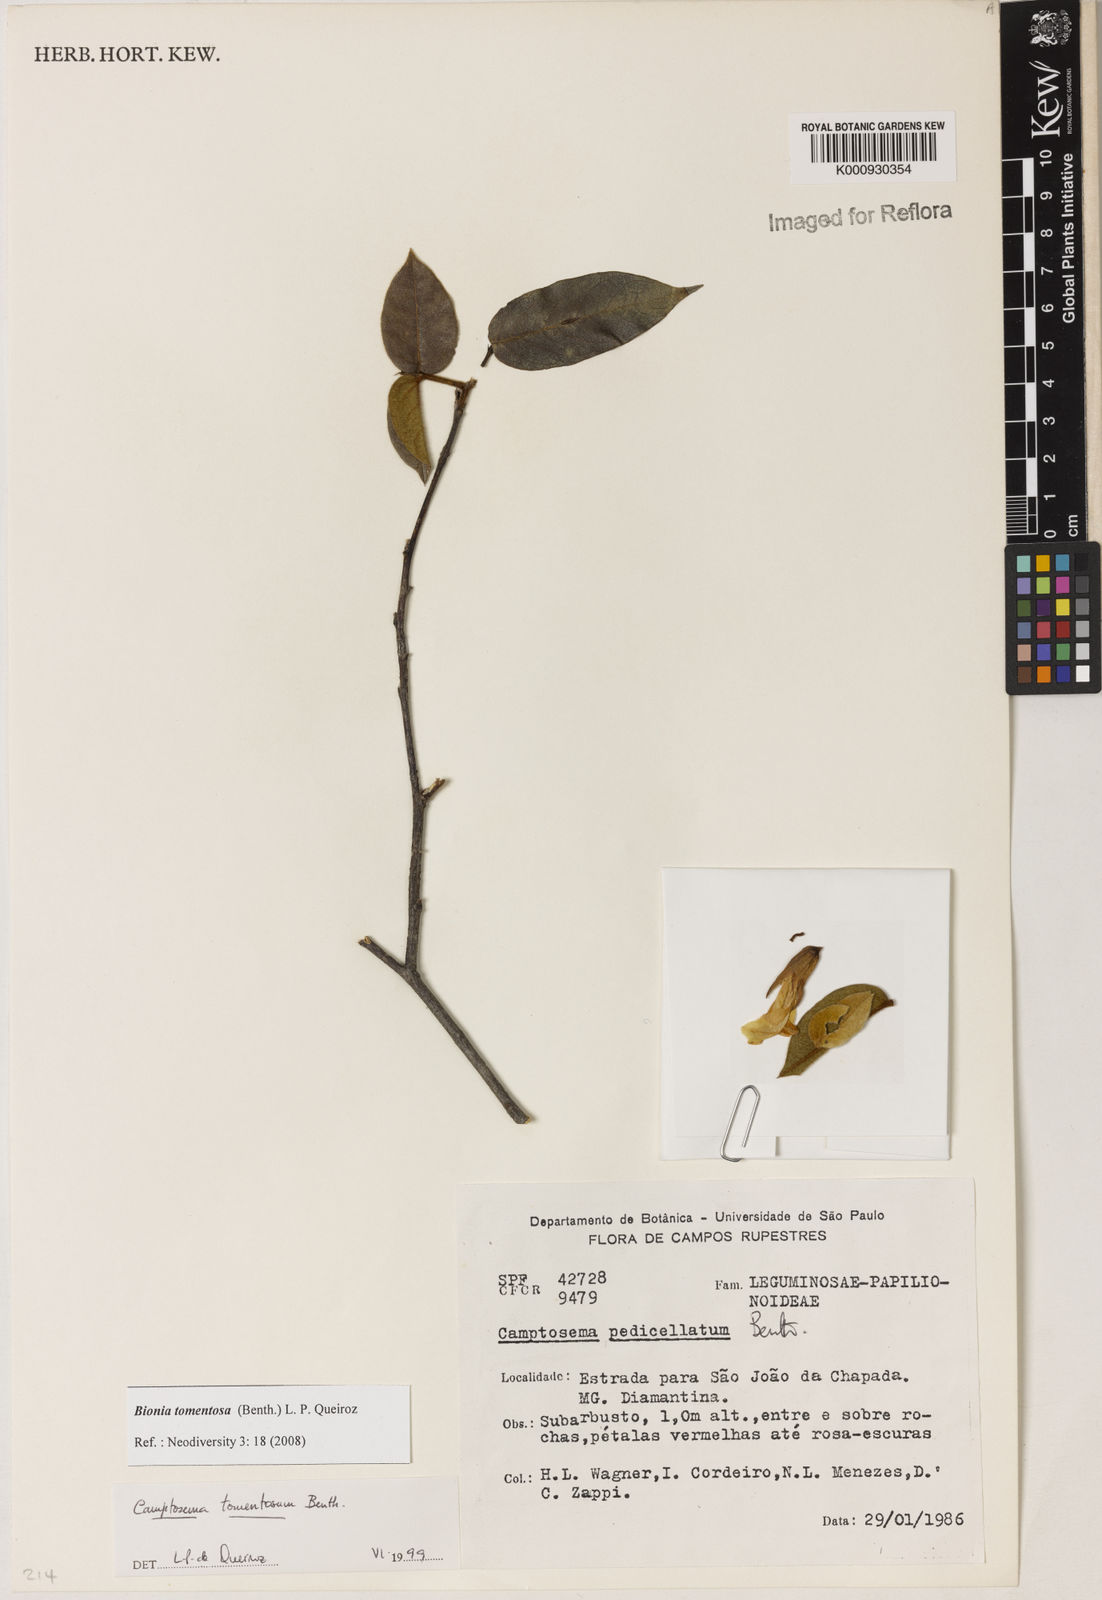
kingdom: Plantae
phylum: Tracheophyta
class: Magnoliopsida
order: Fabales
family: Fabaceae
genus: Camptosema
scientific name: Camptosema tomentosum
